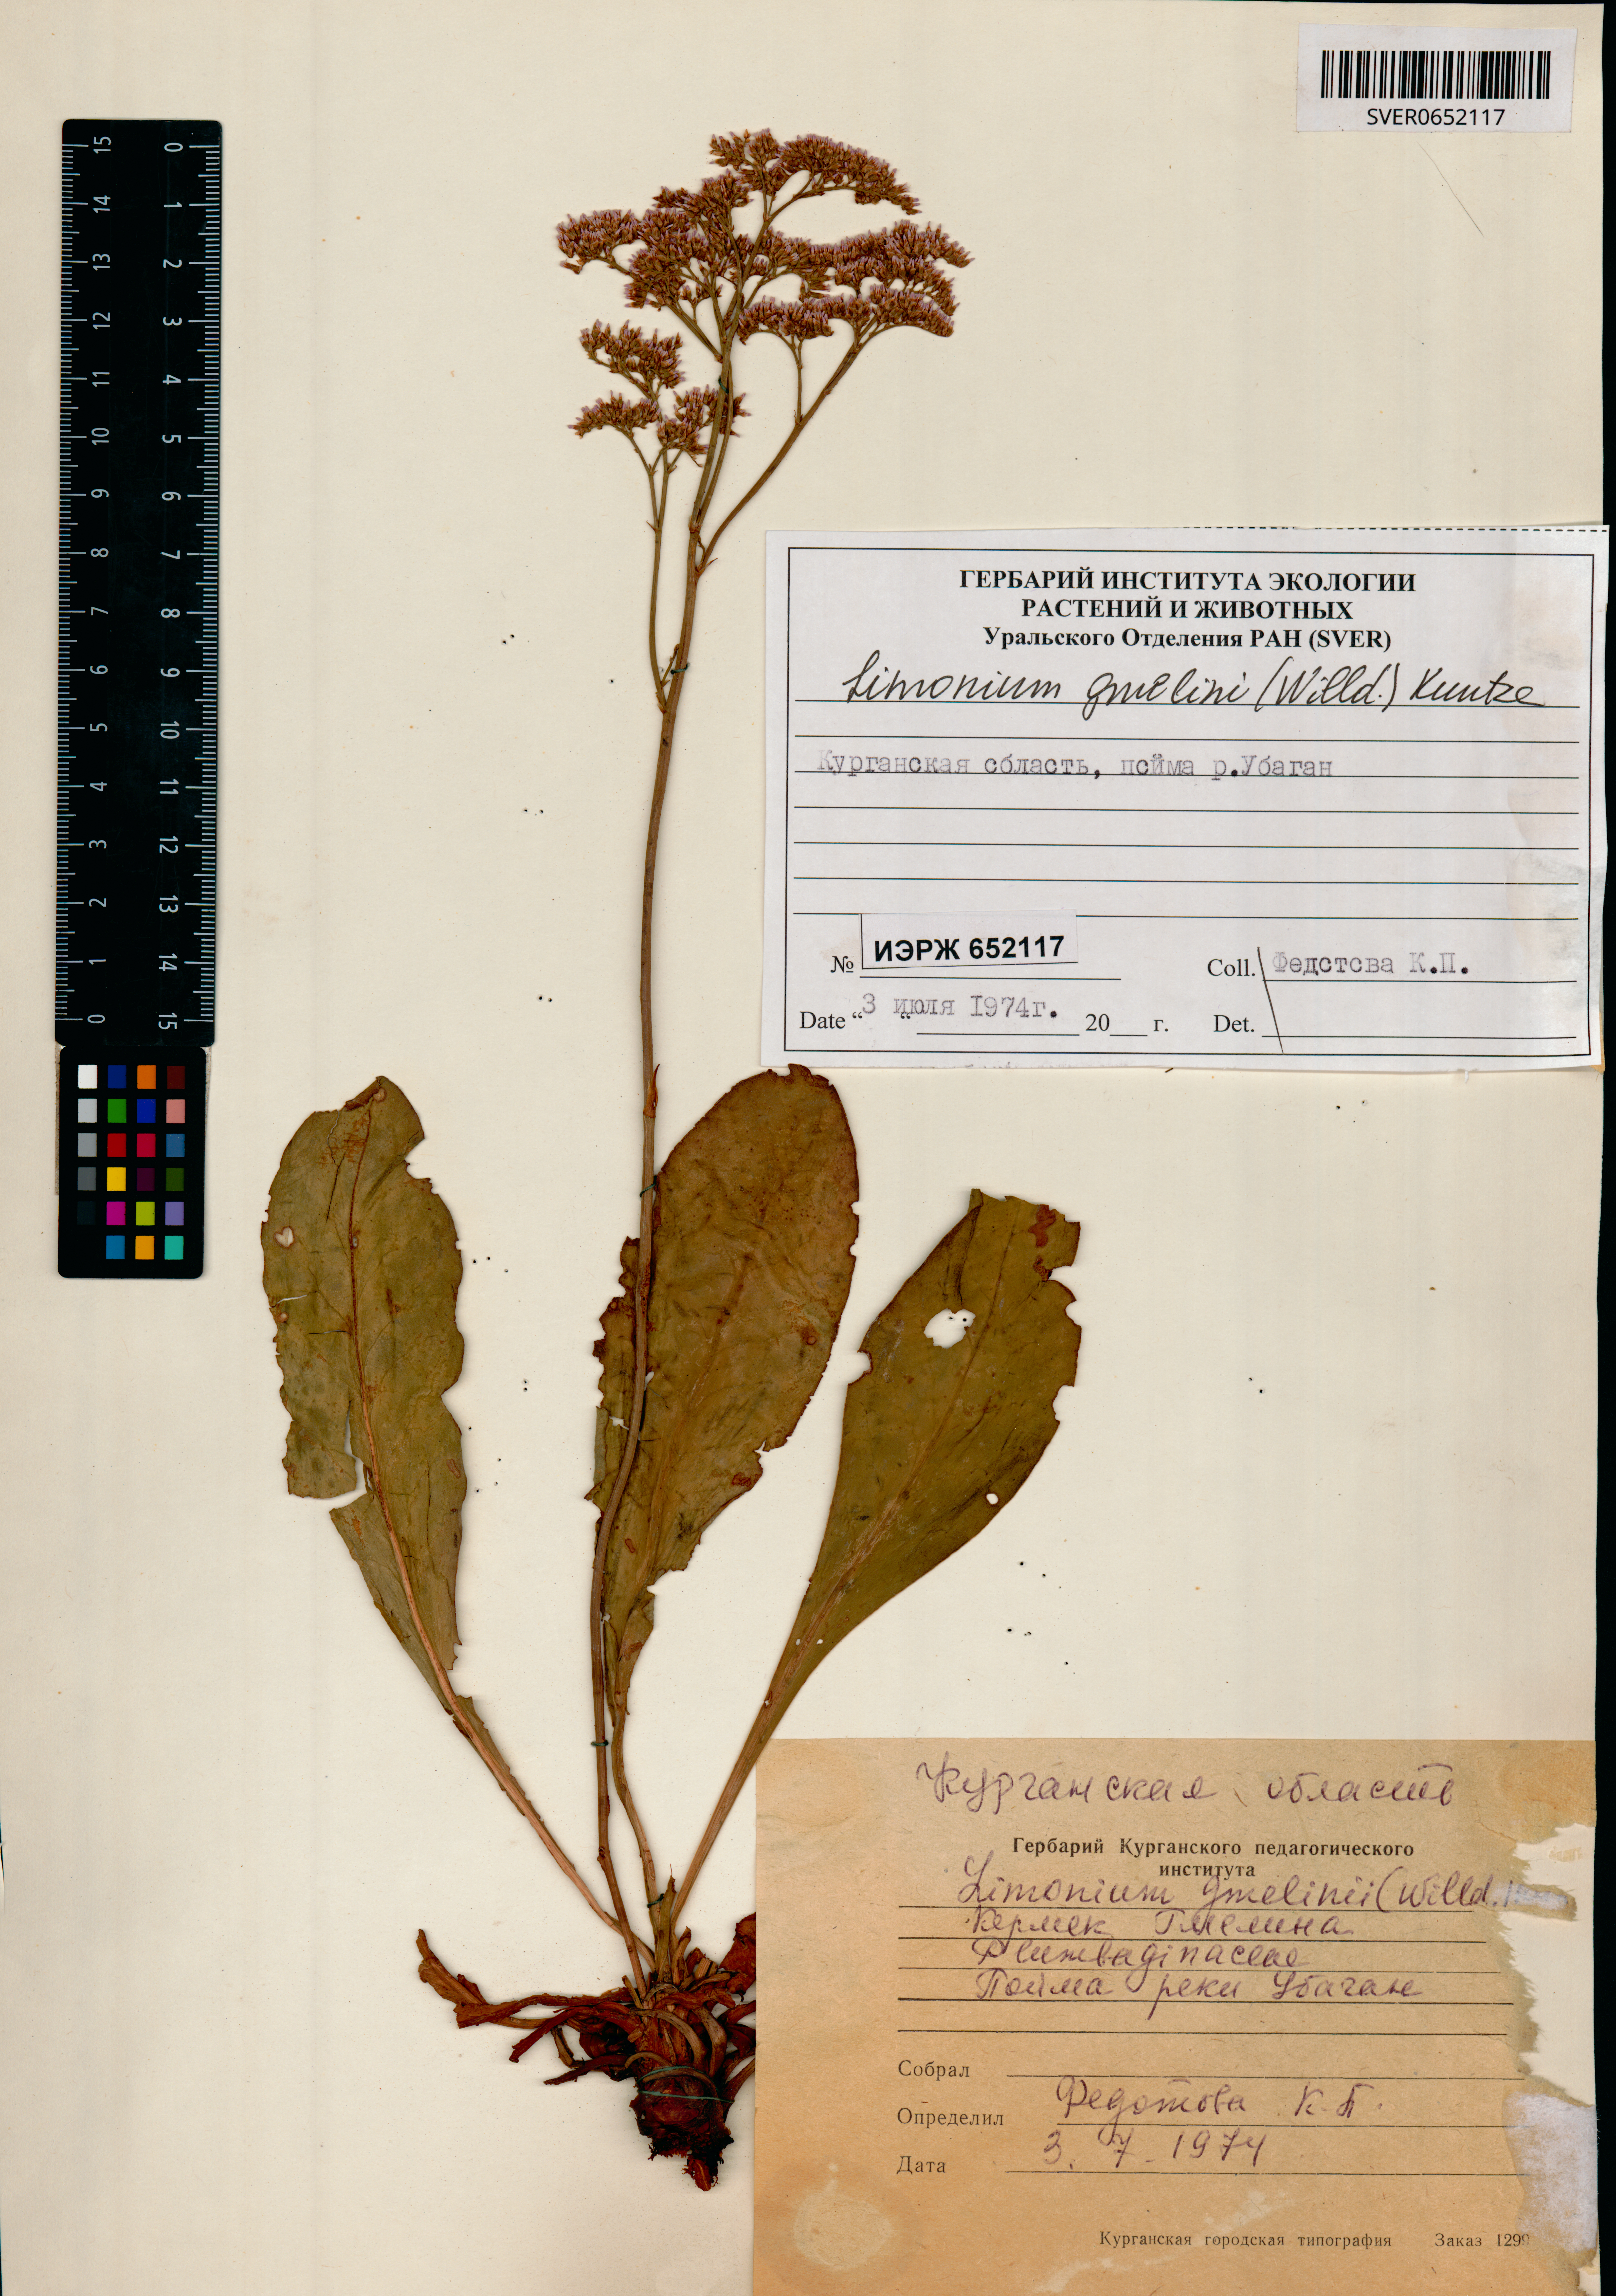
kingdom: Plantae
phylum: Tracheophyta
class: Magnoliopsida
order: Caryophyllales
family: Plumbaginaceae
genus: Limonium
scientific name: Limonium gmelini
